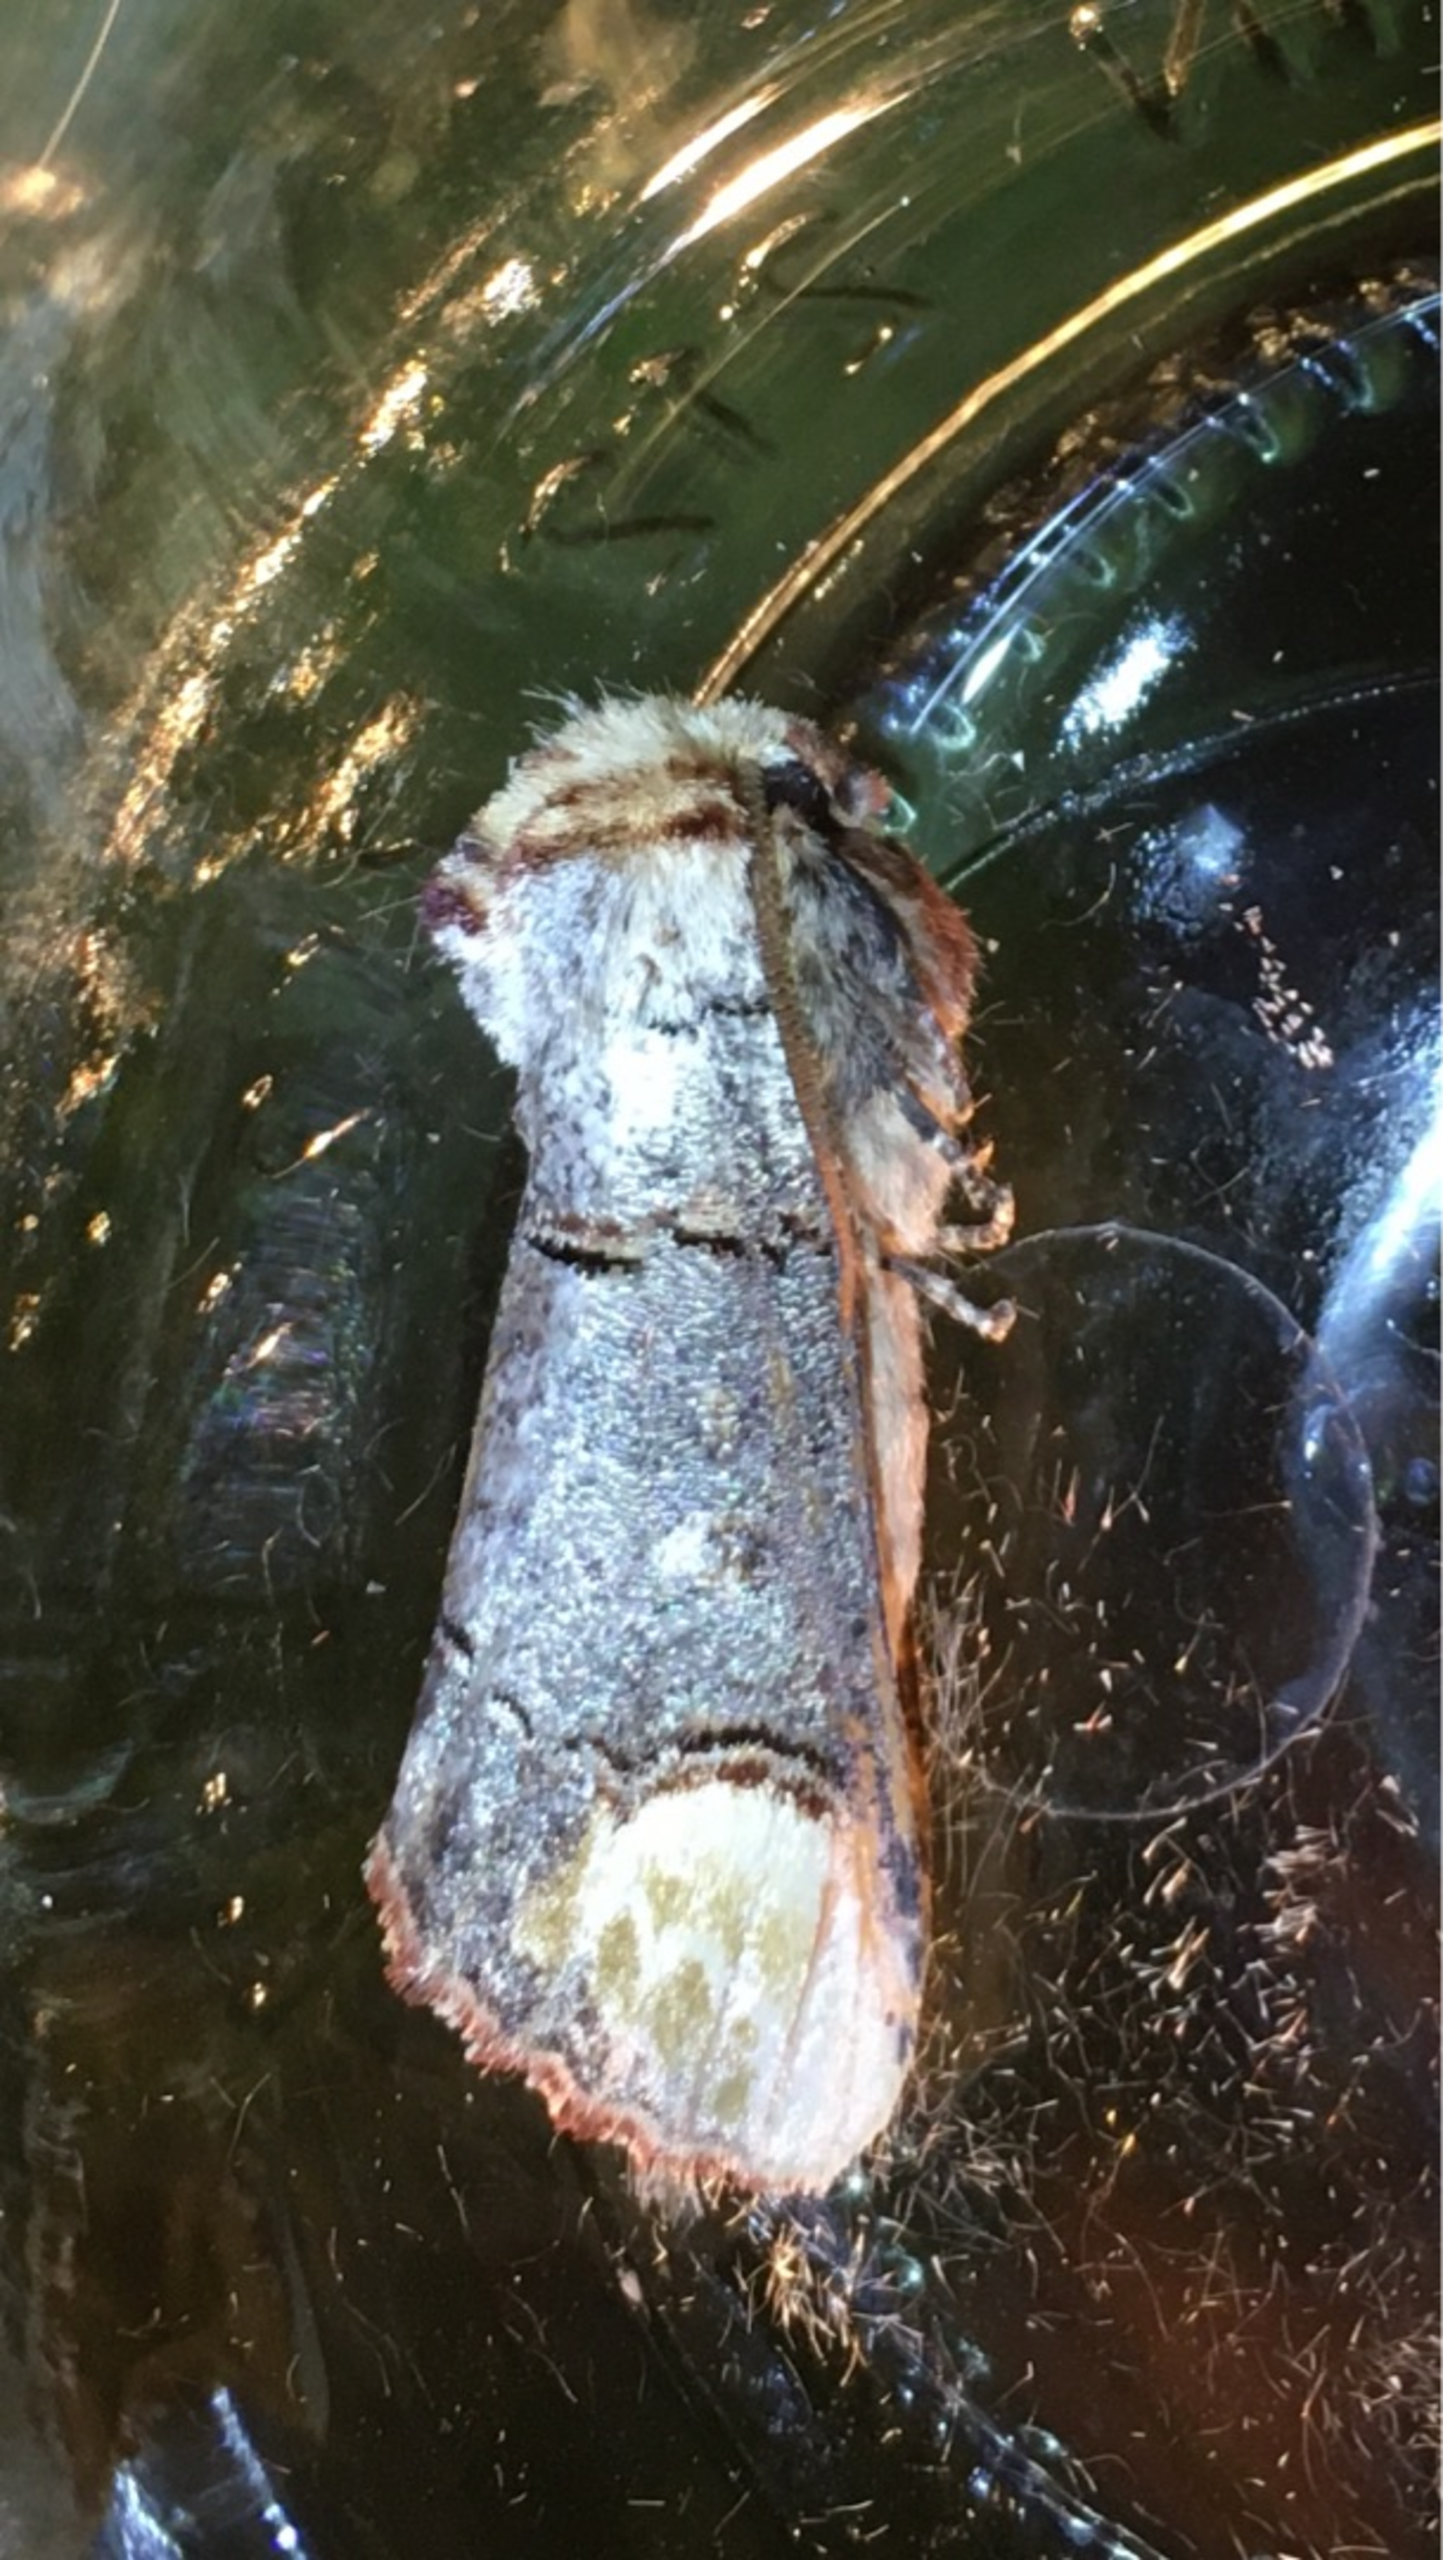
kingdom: Animalia
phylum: Arthropoda
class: Insecta
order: Lepidoptera
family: Notodontidae
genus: Phalera
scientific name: Phalera bucephala
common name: Måneplet
